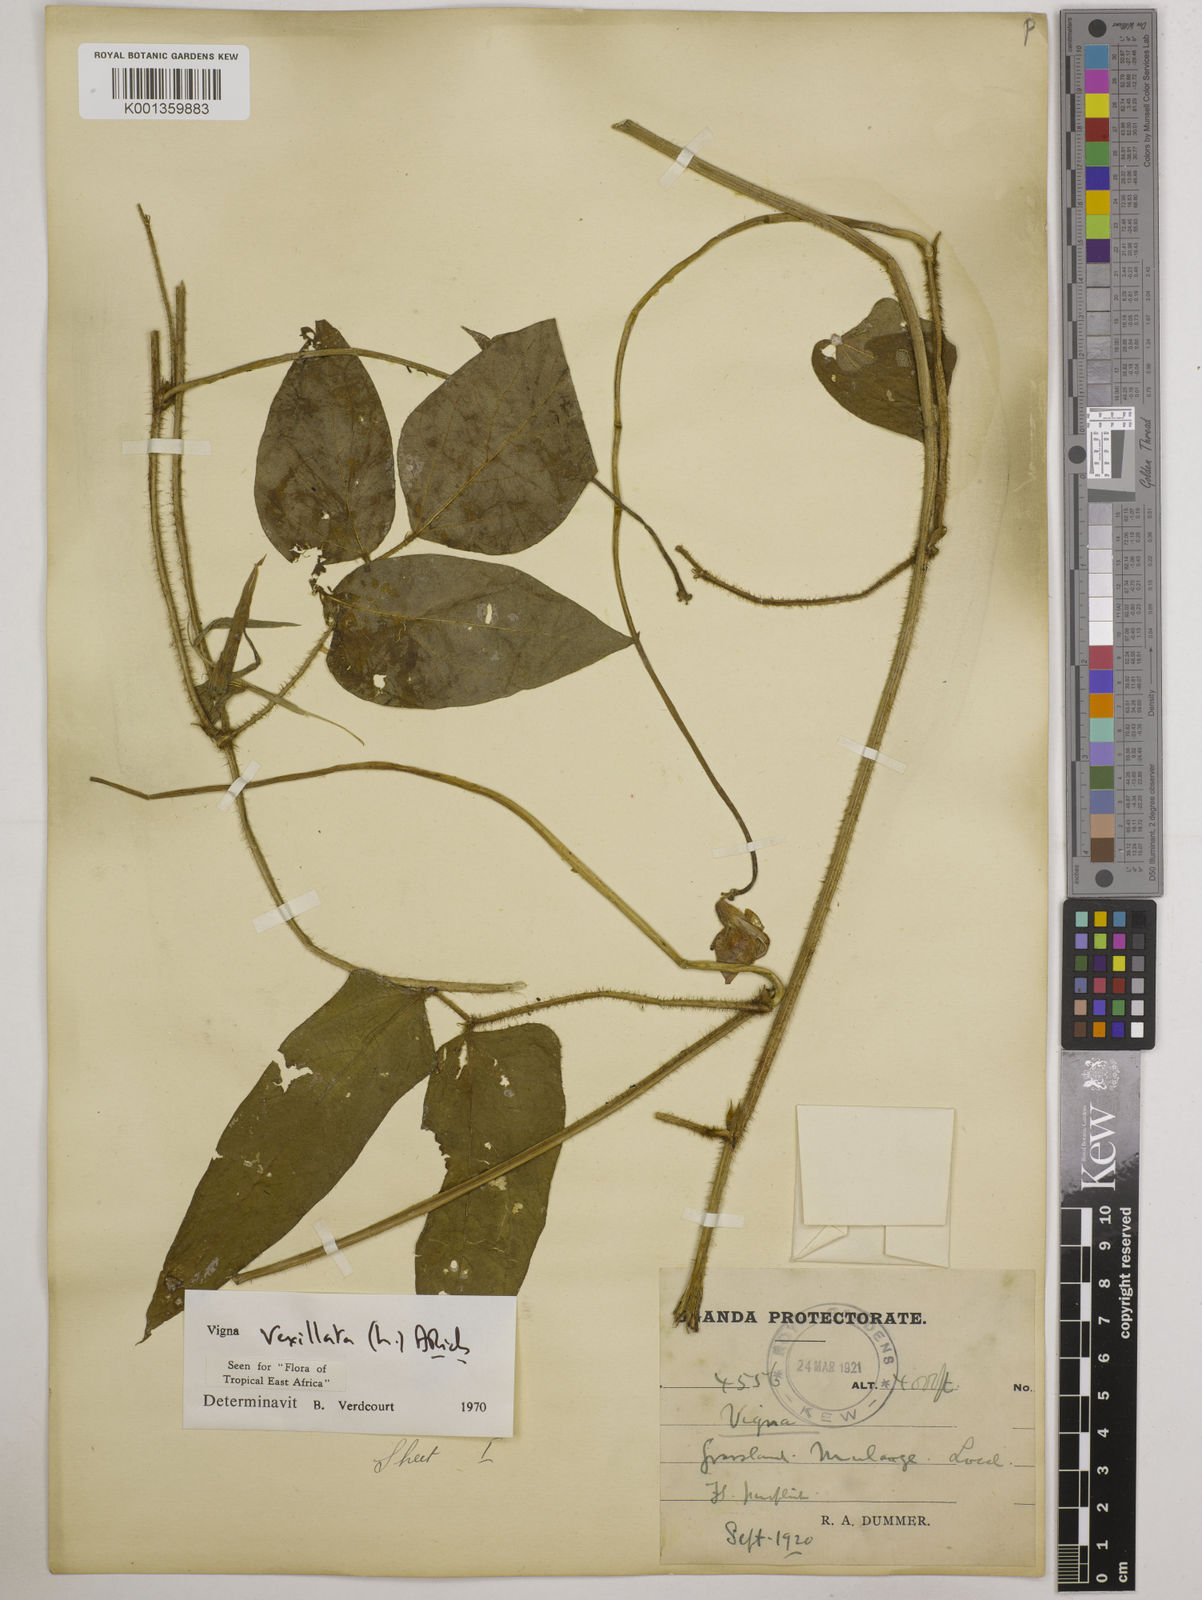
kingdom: Plantae
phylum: Tracheophyta
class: Magnoliopsida
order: Fabales
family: Fabaceae
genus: Vigna
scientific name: Vigna vexillata
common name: Zombi pea
